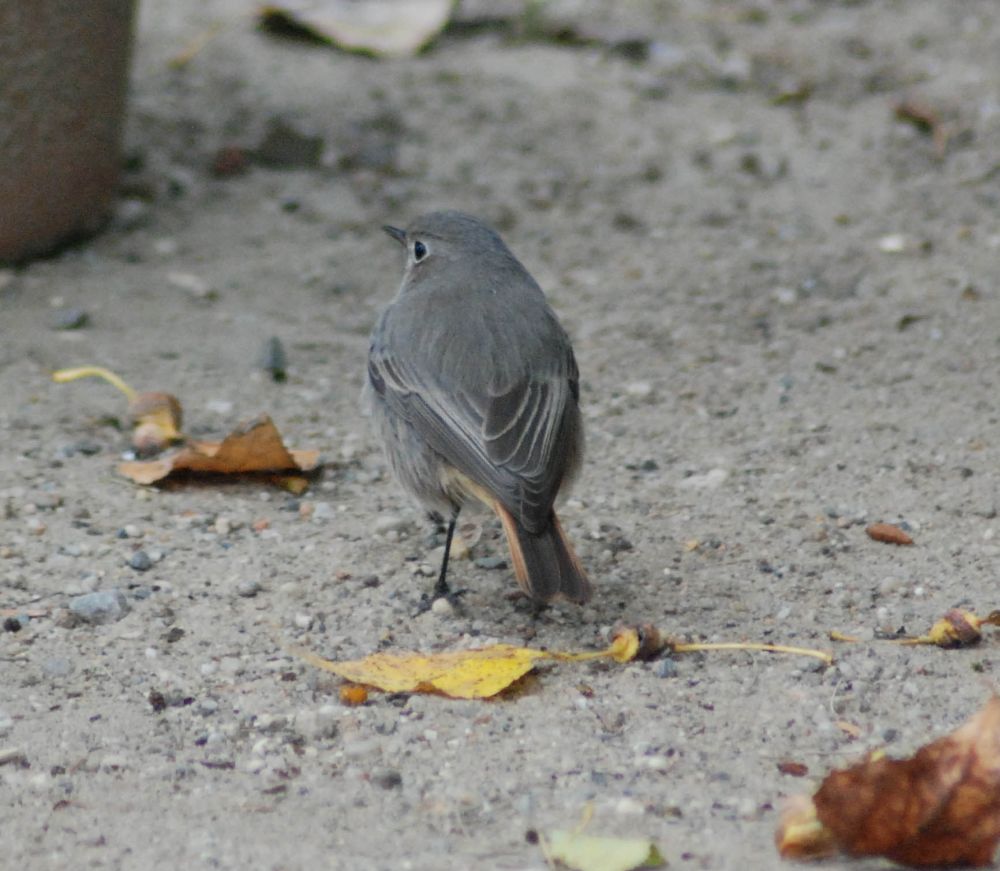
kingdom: Animalia
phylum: Chordata
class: Aves
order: Passeriformes
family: Muscicapidae
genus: Phoenicurus
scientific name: Phoenicurus ochruros
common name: Black redstart
